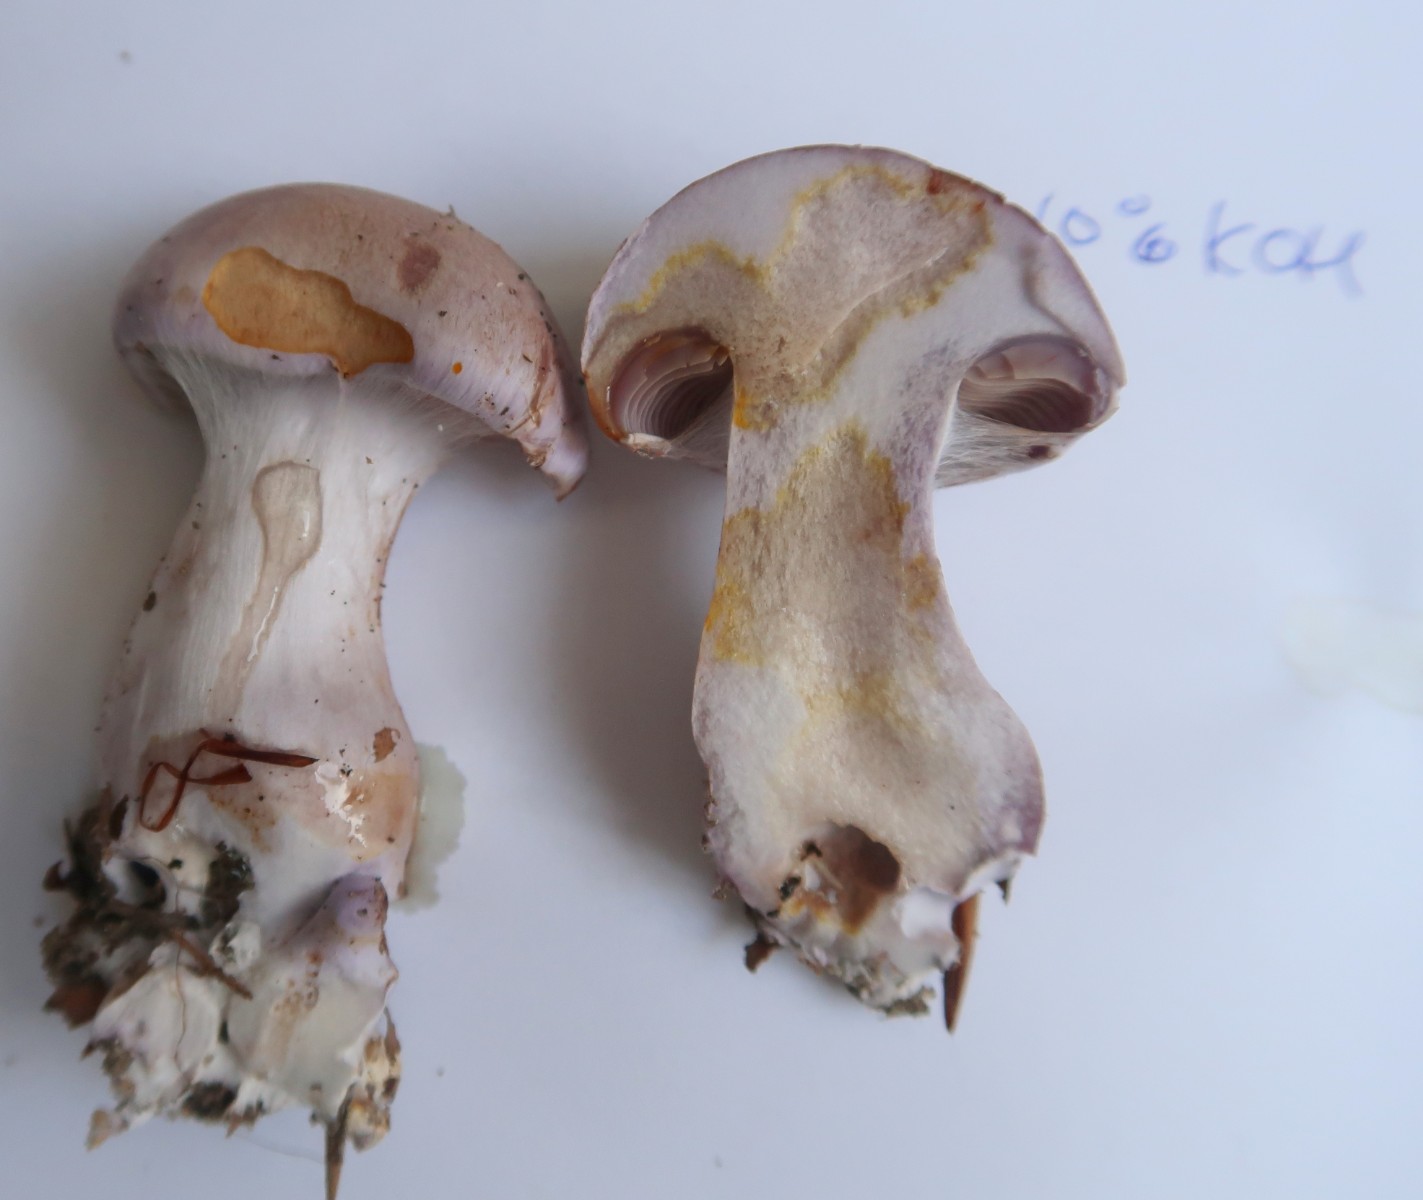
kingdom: Fungi
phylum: Basidiomycota
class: Agaricomycetes
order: Agaricales
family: Cortinariaceae
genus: Cortinarius
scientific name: Cortinarius largus
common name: violetrandet slørhat
